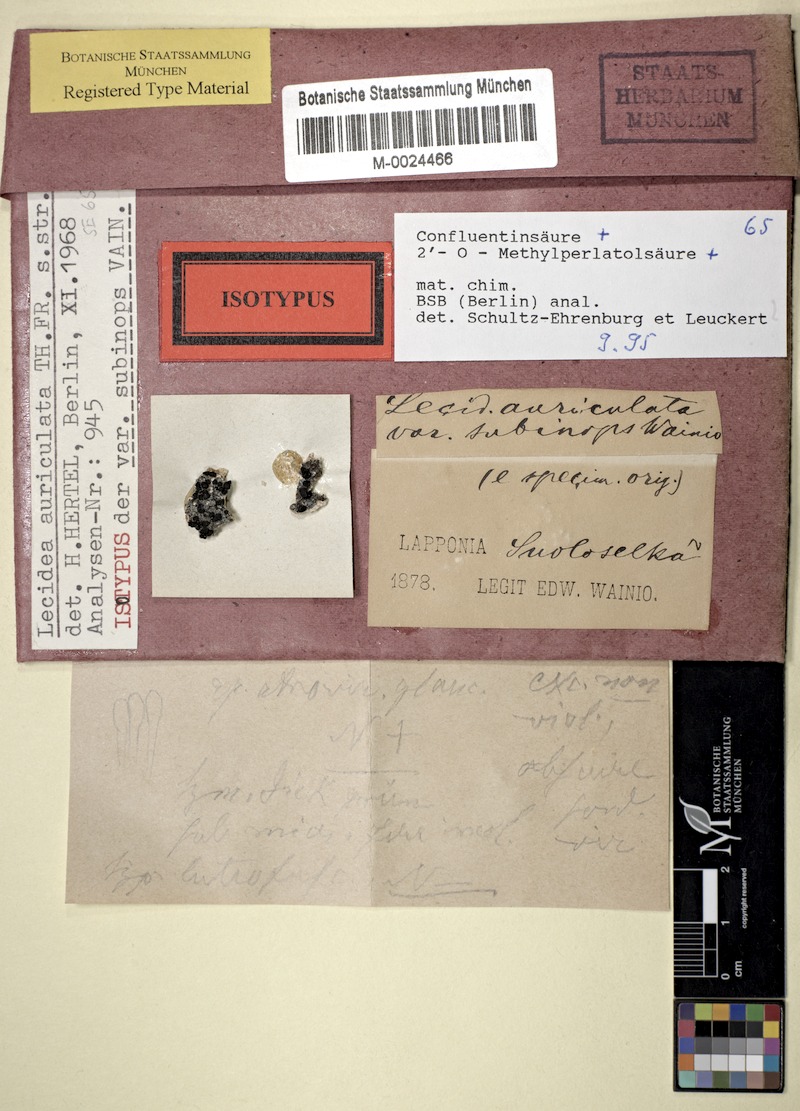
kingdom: Fungi
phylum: Ascomycota
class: Lecanoromycetes
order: Lecideales
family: Lecideaceae
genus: Lecidea
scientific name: Lecidea auriculata
